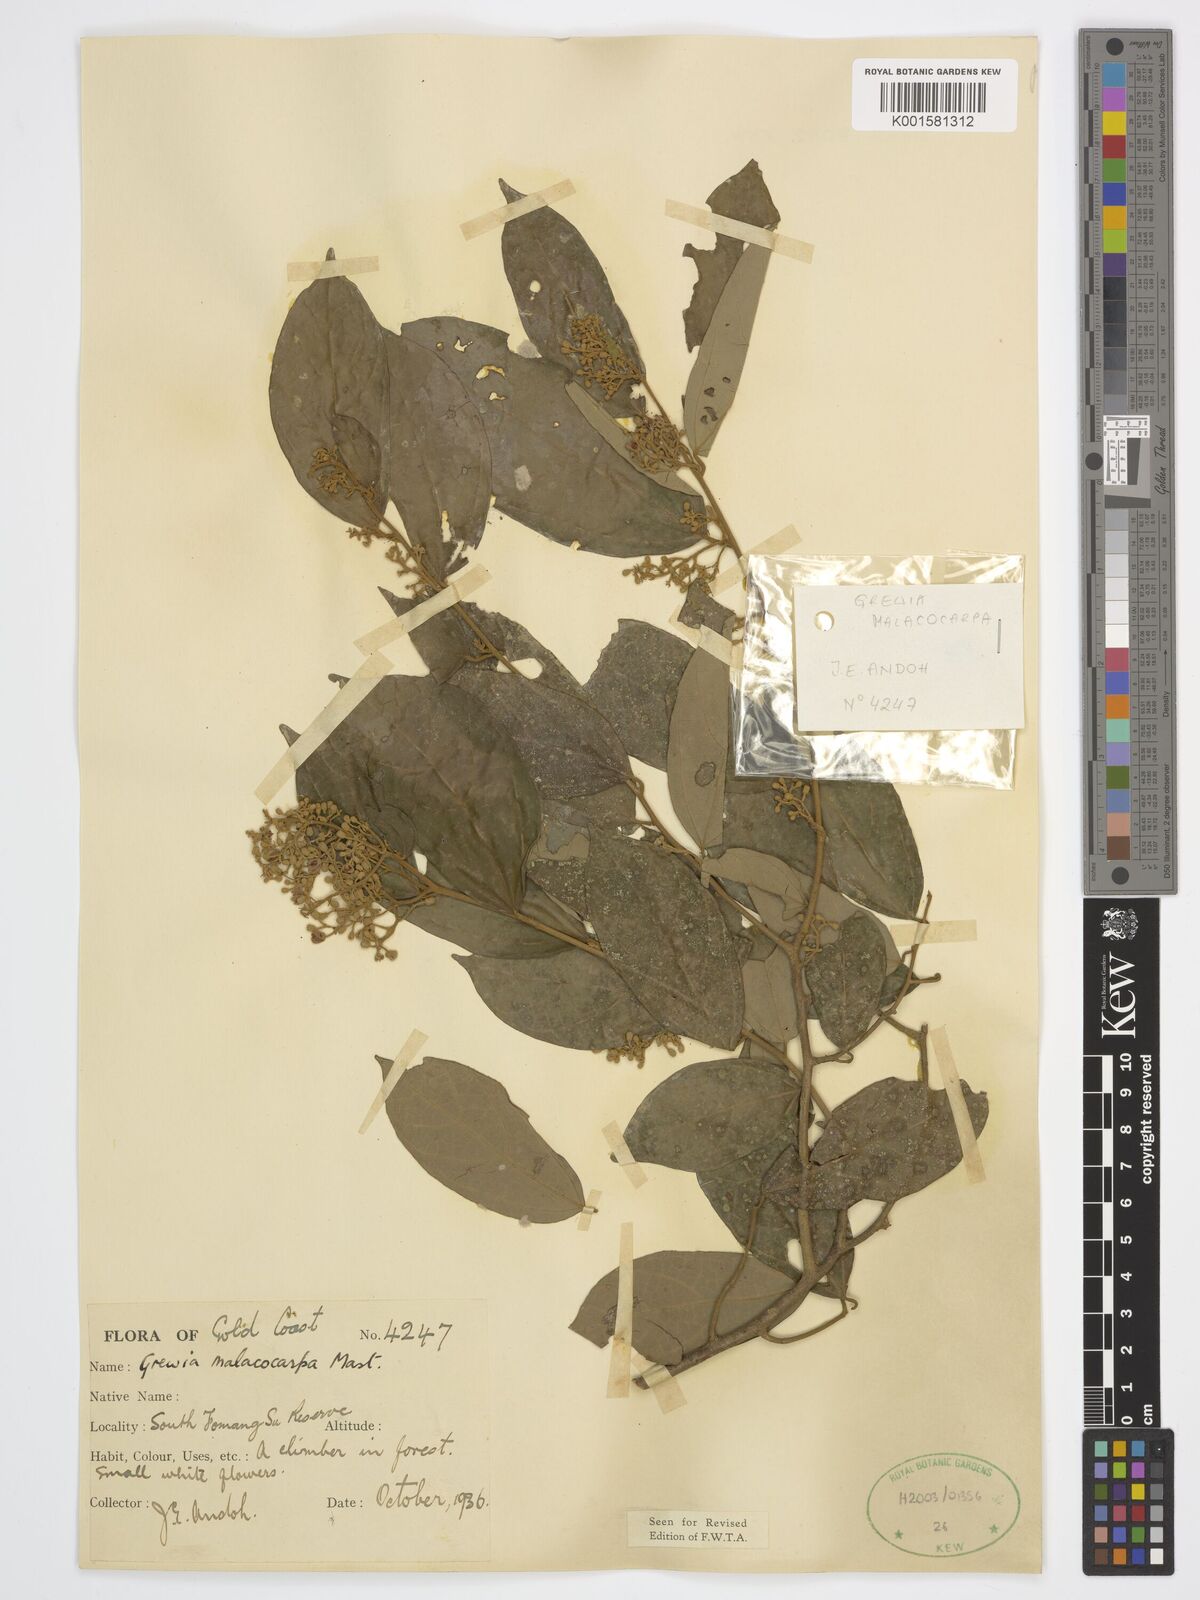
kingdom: Plantae
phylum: Tracheophyta
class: Magnoliopsida
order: Malvales
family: Malvaceae
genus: Microcos
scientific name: Microcos malacocarpa
